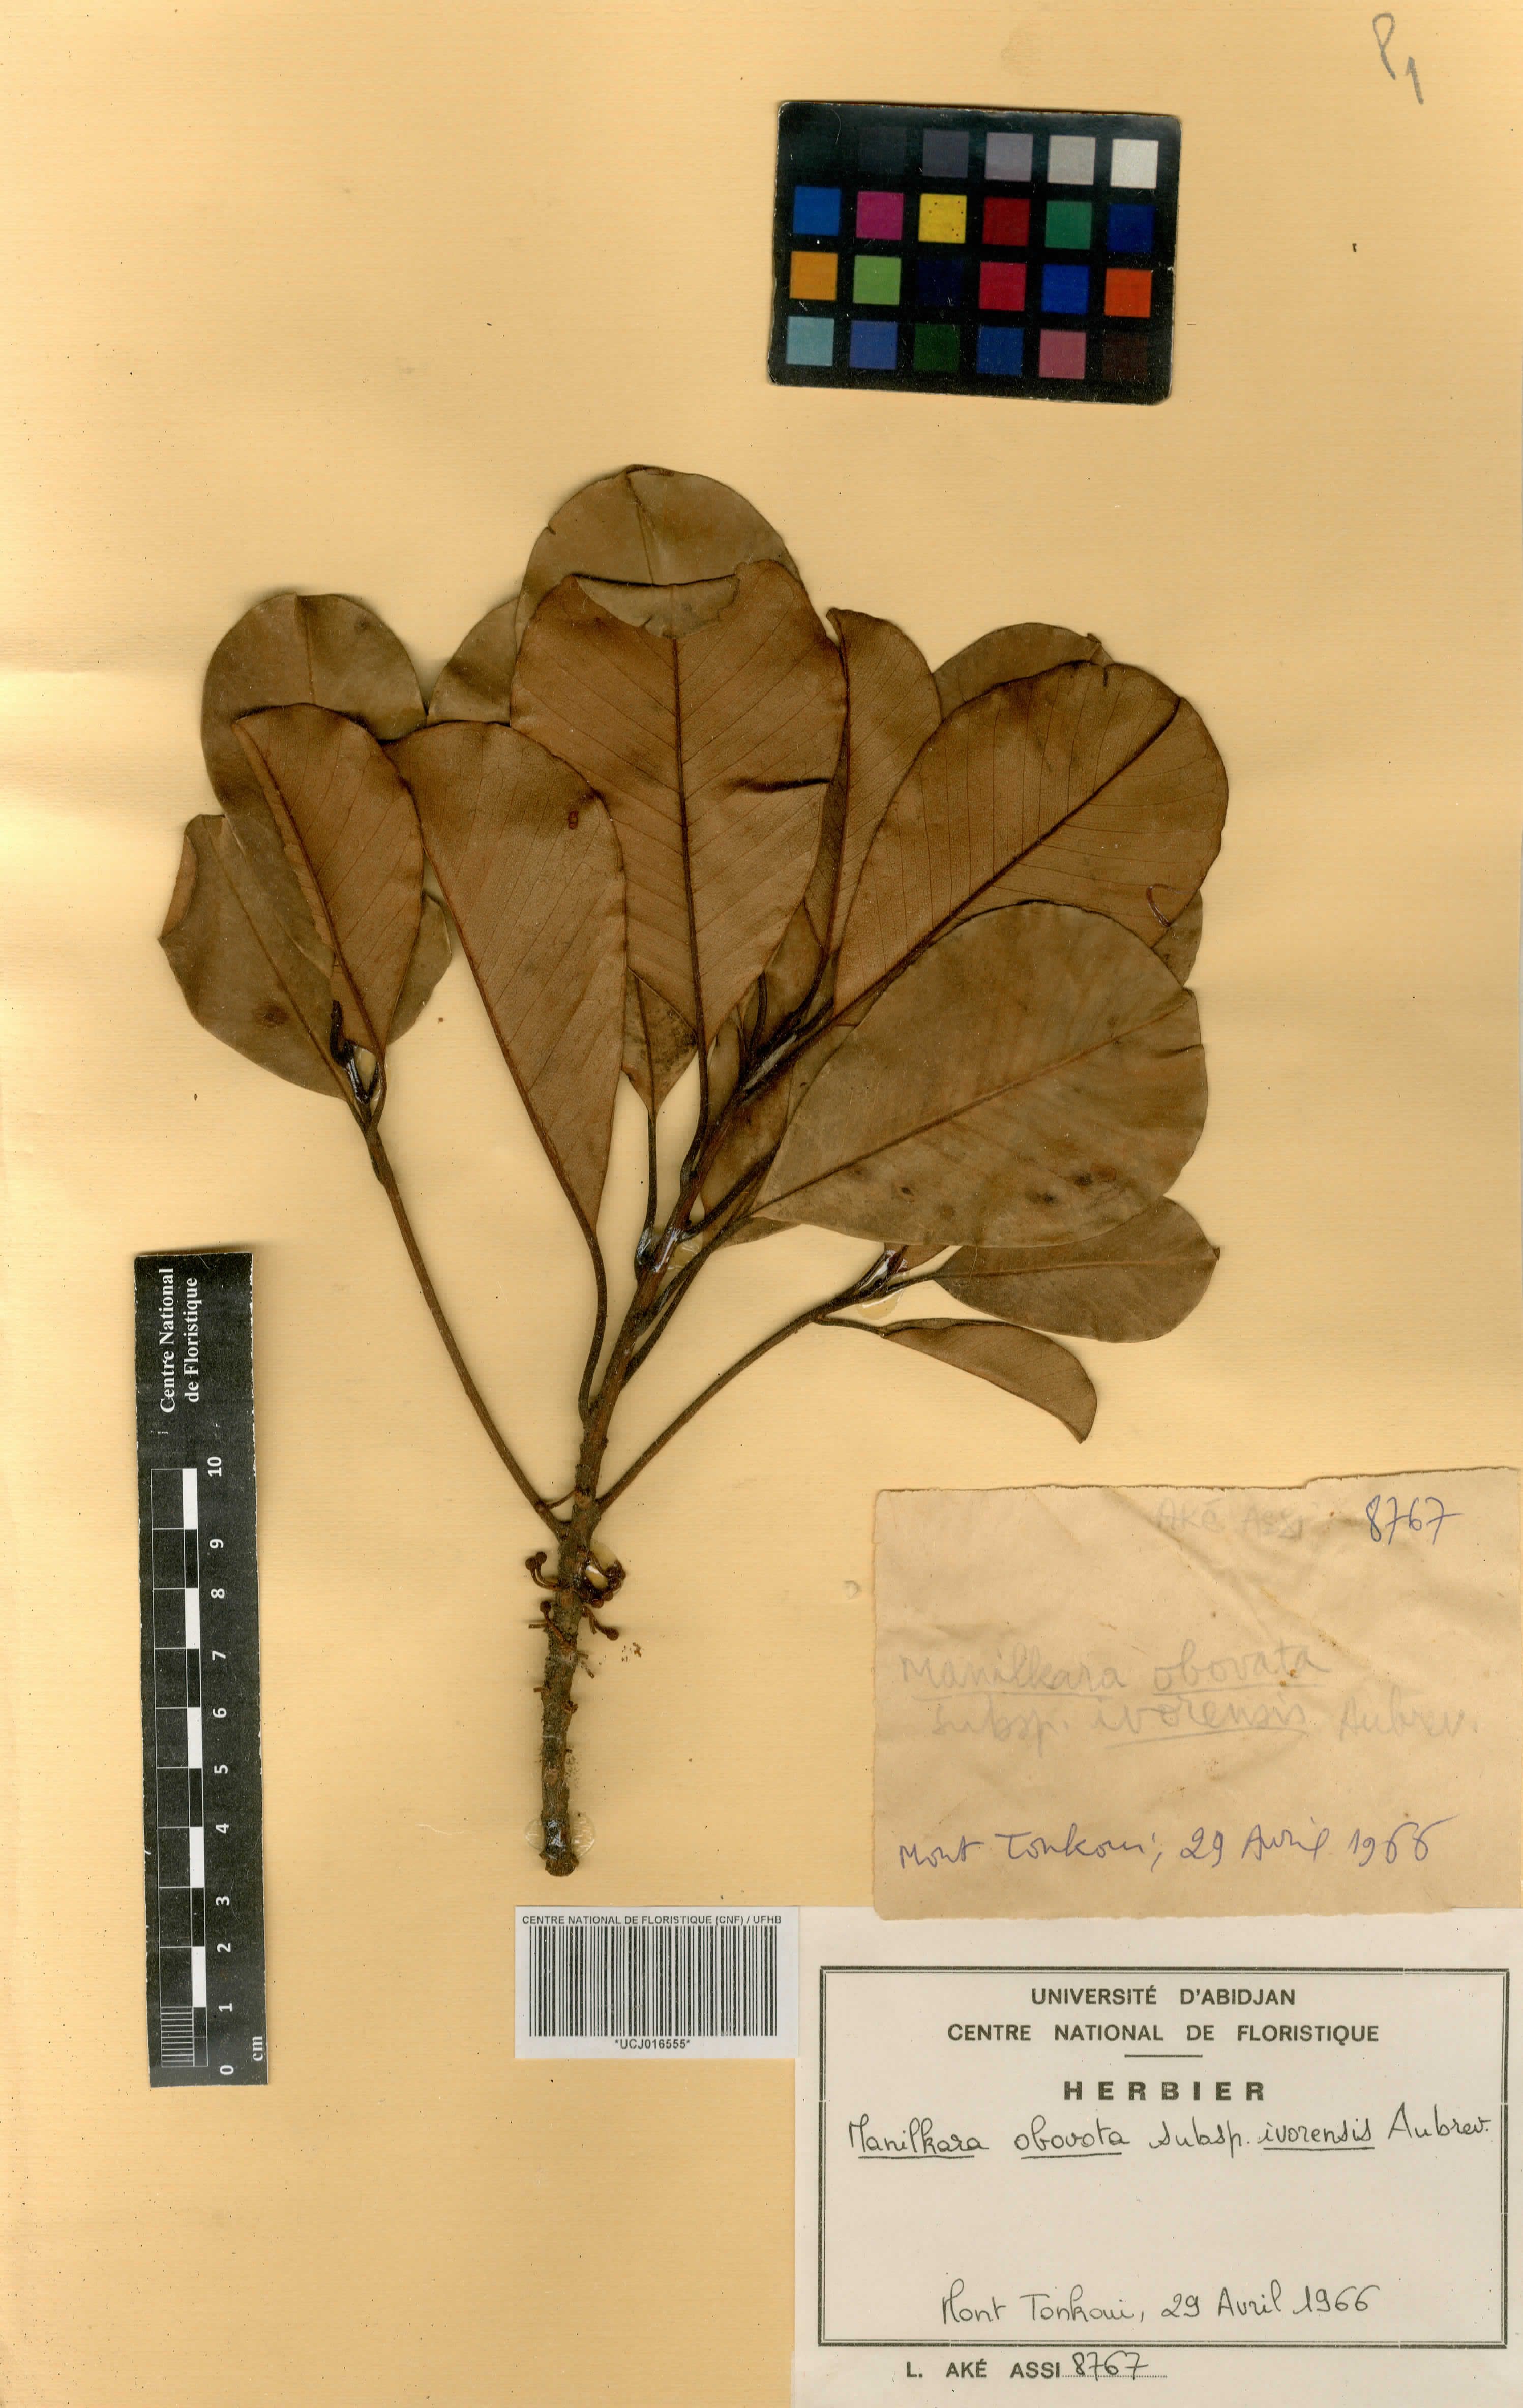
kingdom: Plantae
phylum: Tracheophyta
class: Magnoliopsida
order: Ericales
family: Sapotaceae
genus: Manilkara
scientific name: Manilkara obovata
